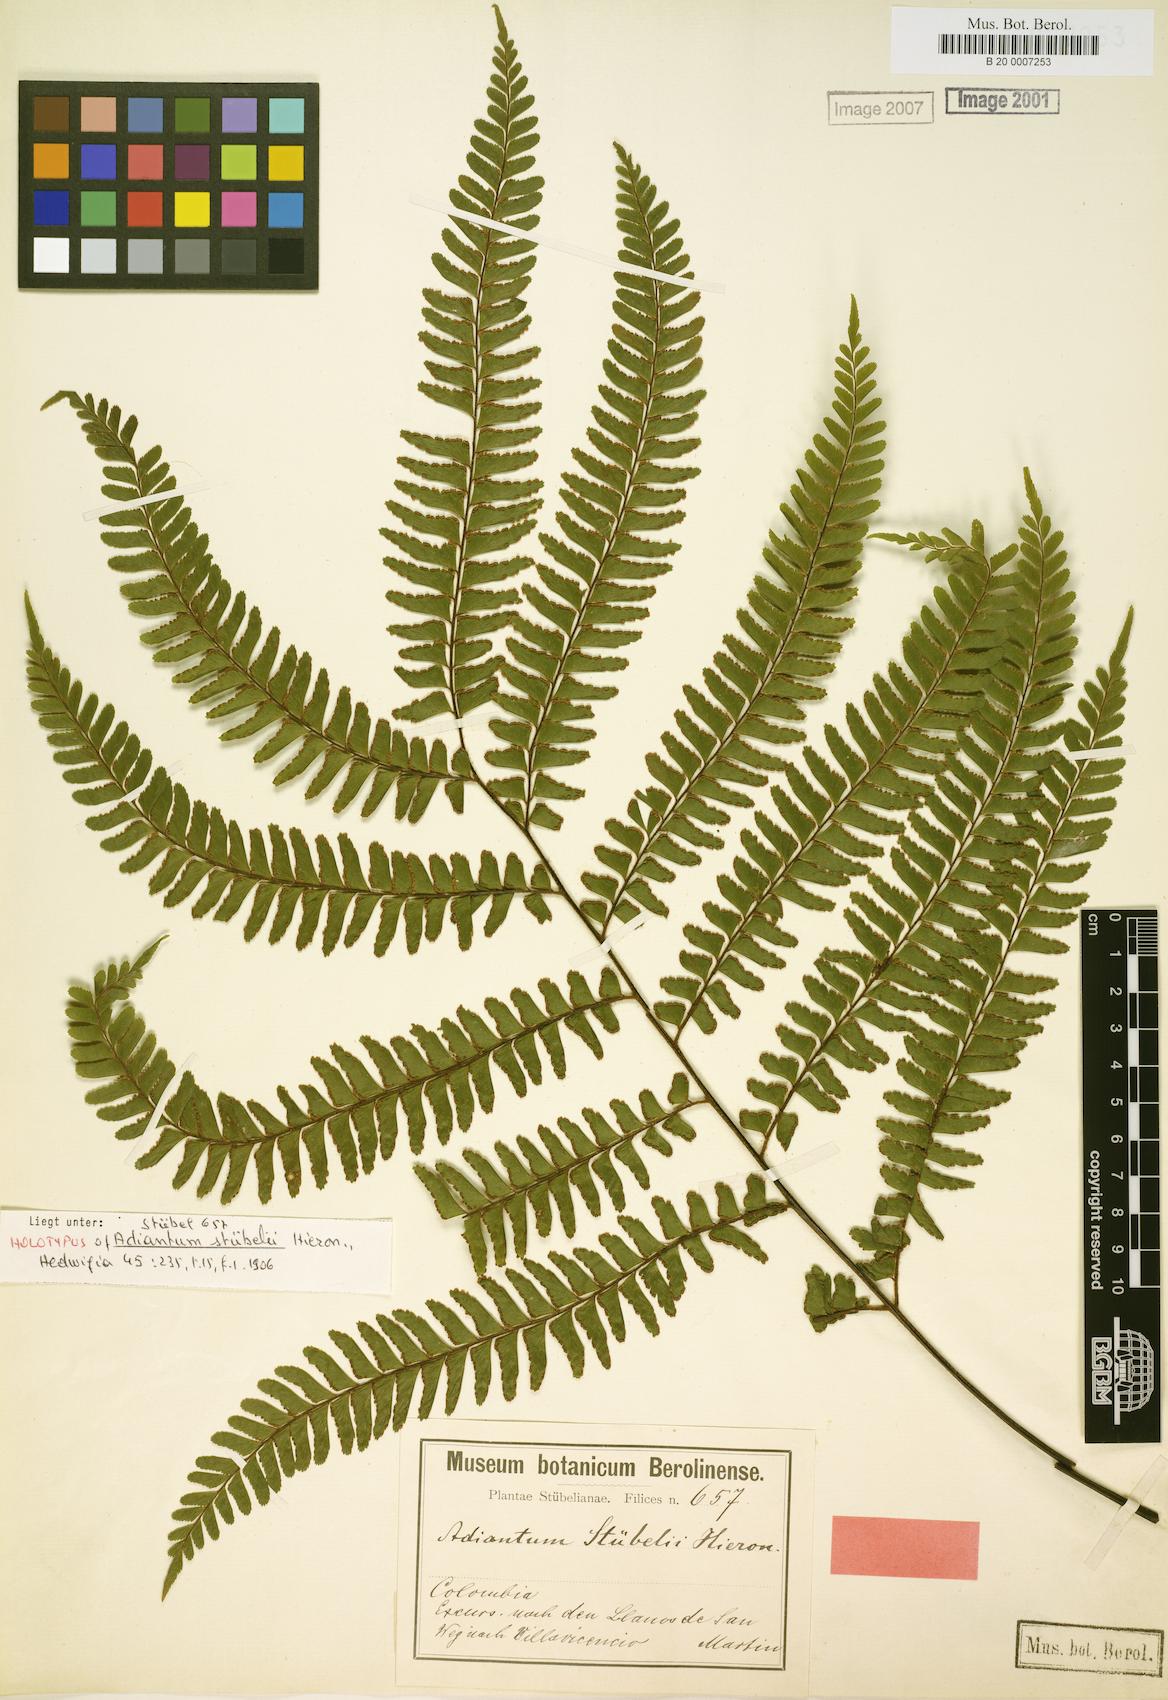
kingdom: Plantae
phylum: Tracheophyta
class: Polypodiopsida
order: Polypodiales
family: Pteridaceae
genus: Adiantum
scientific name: Adiantum stubelii
